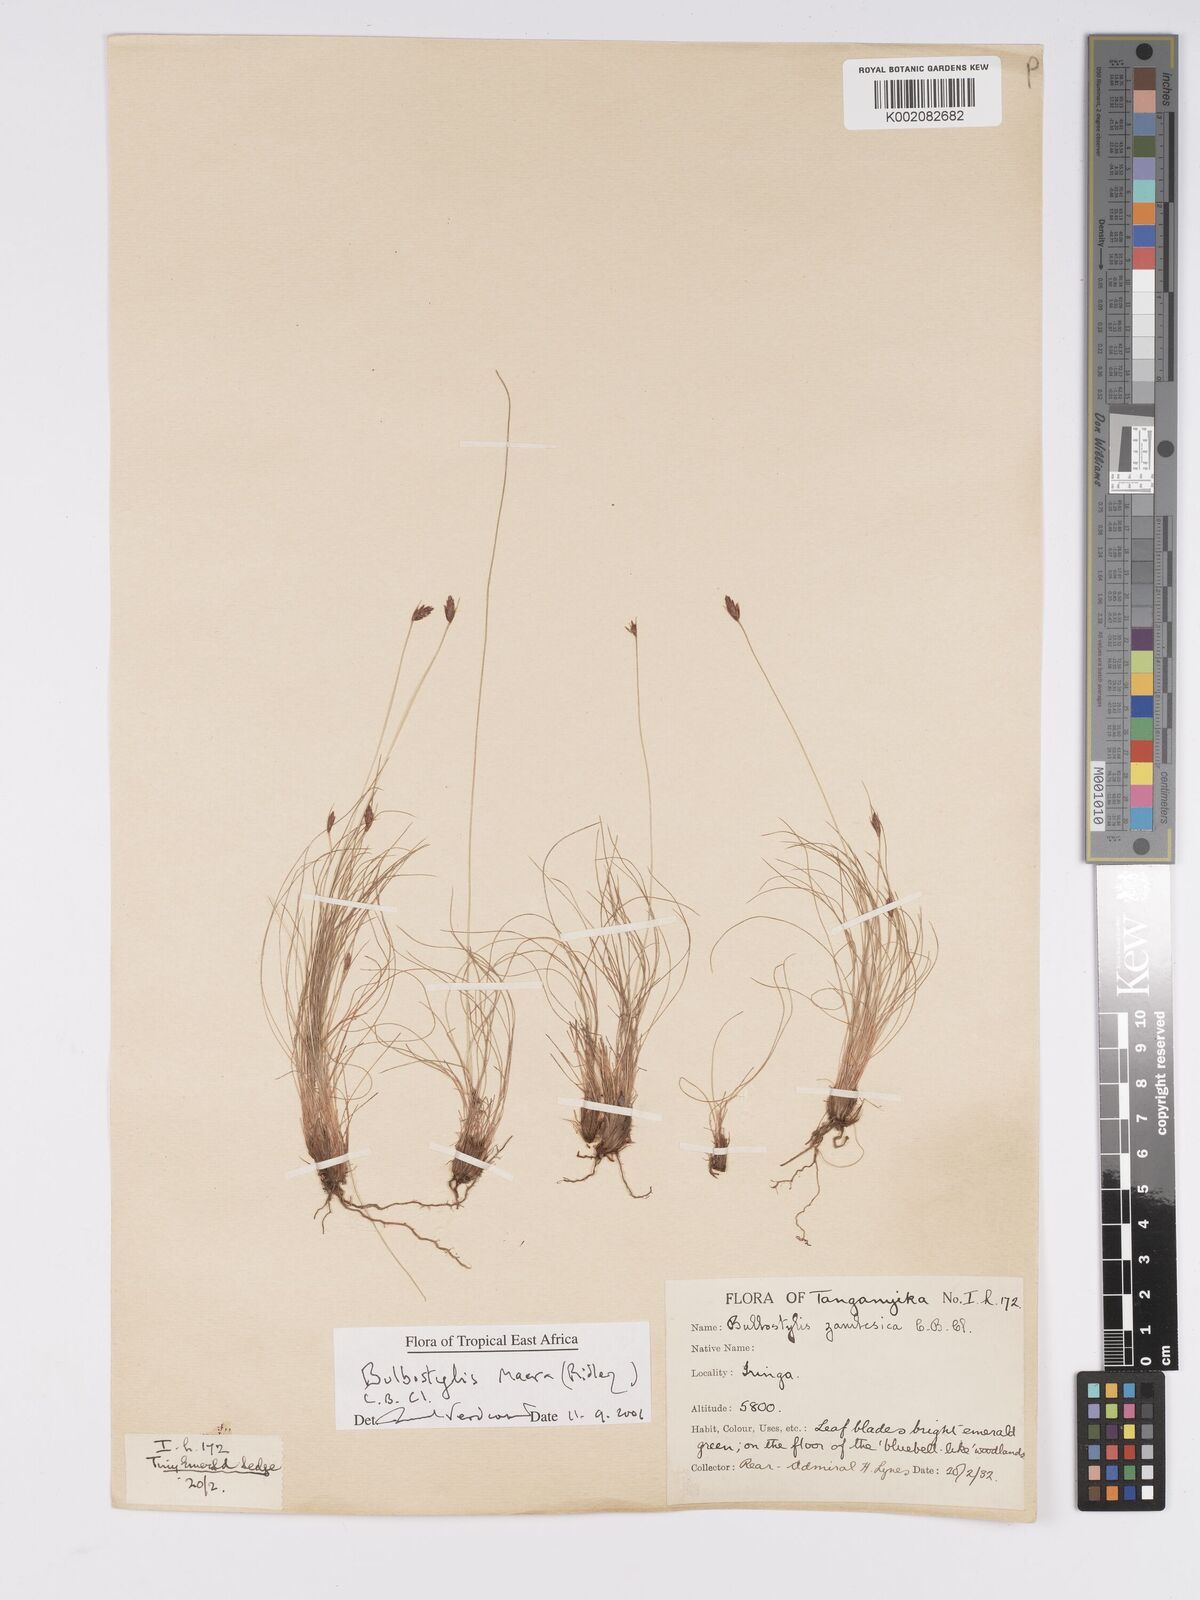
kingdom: Plantae
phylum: Tracheophyta
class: Liliopsida
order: Poales
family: Cyperaceae
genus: Bulbostylis
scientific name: Bulbostylis macra
